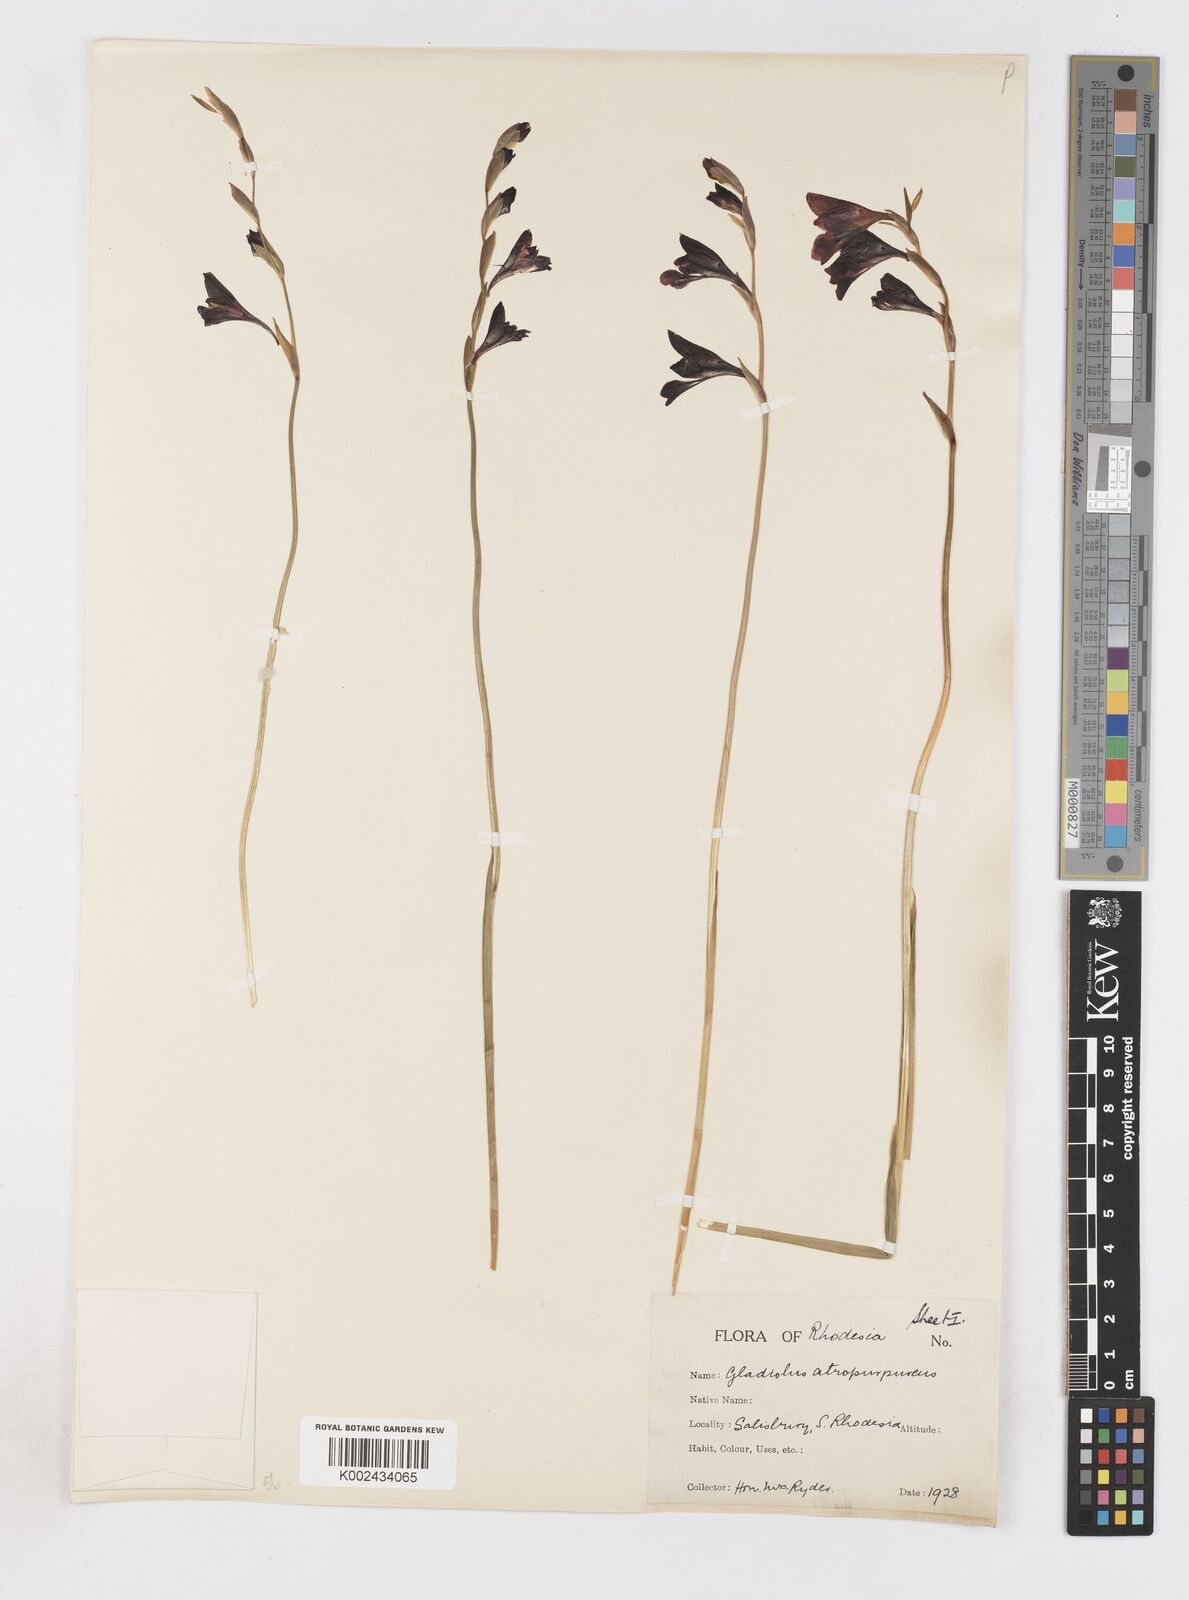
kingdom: Plantae
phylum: Tracheophyta
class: Liliopsida
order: Asparagales
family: Iridaceae
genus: Gladiolus
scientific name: Gladiolus atropurpureus
